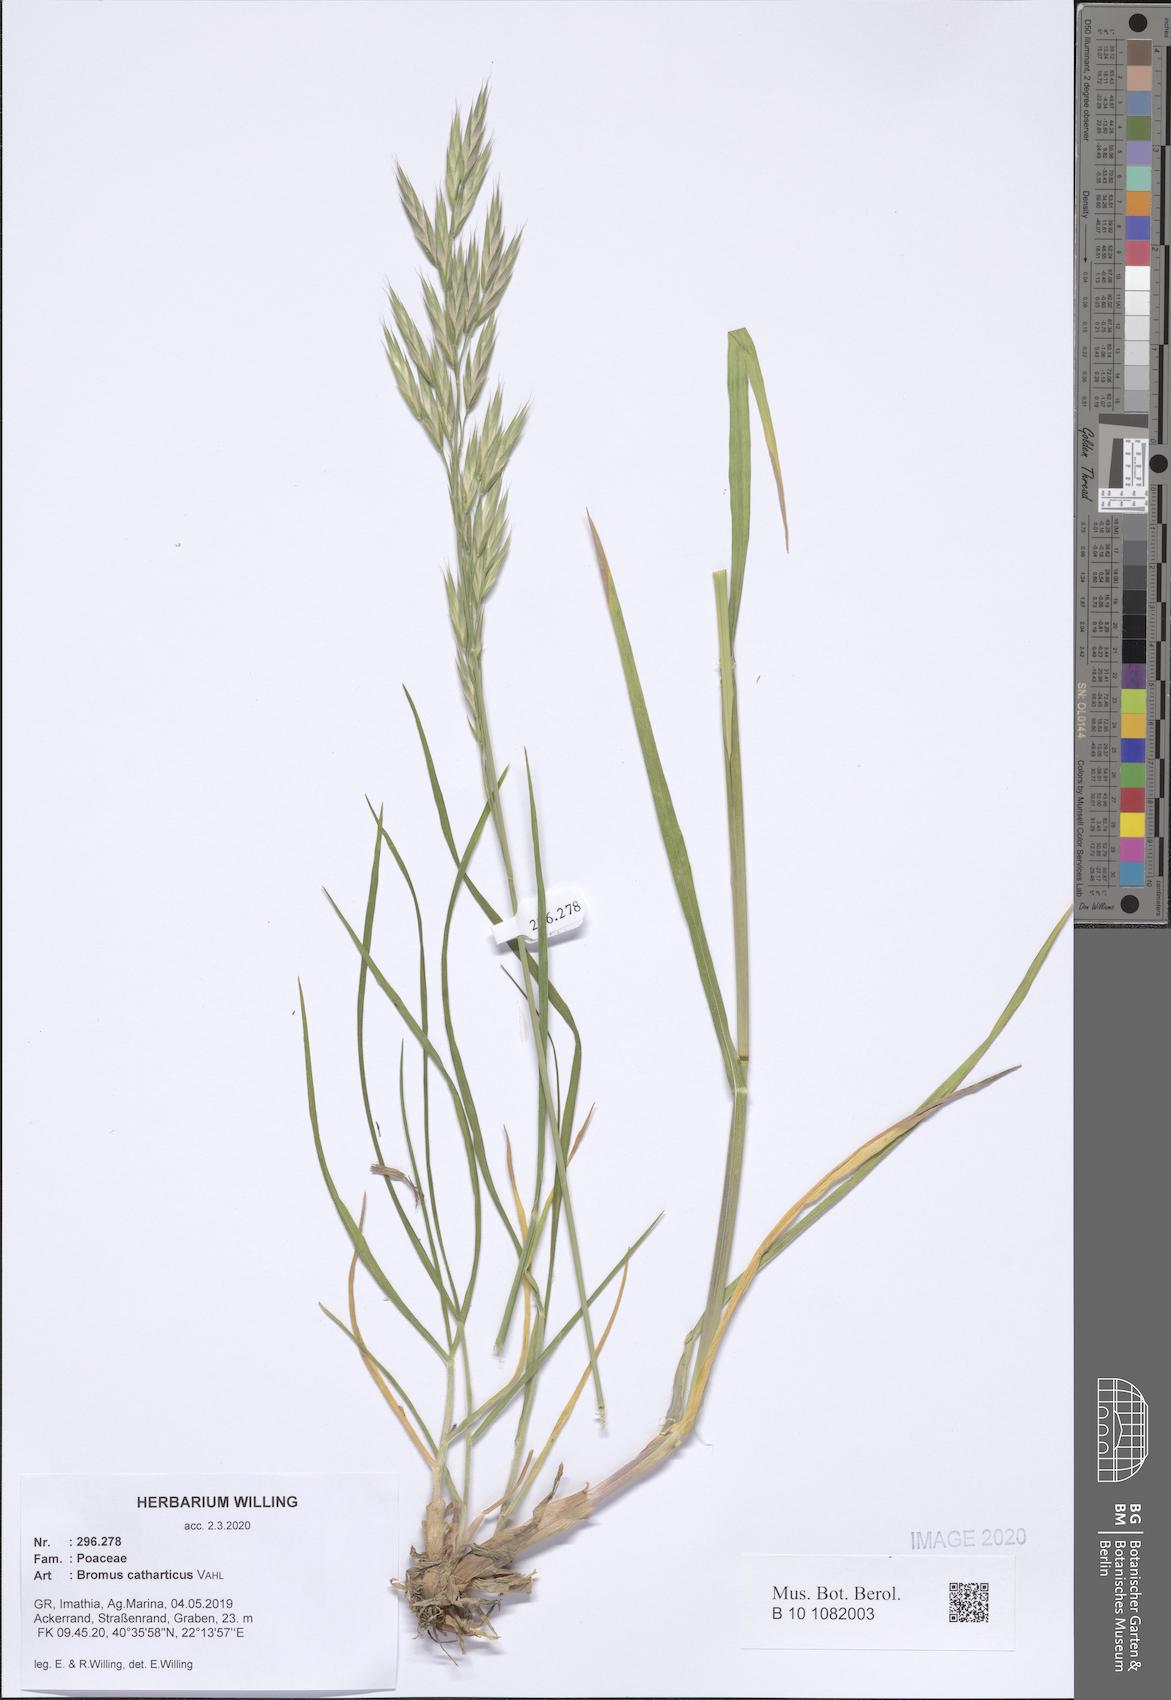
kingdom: Plantae
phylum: Tracheophyta
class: Liliopsida
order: Poales
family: Poaceae
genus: Bromus
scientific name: Bromus catharticus
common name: Rescuegrass
